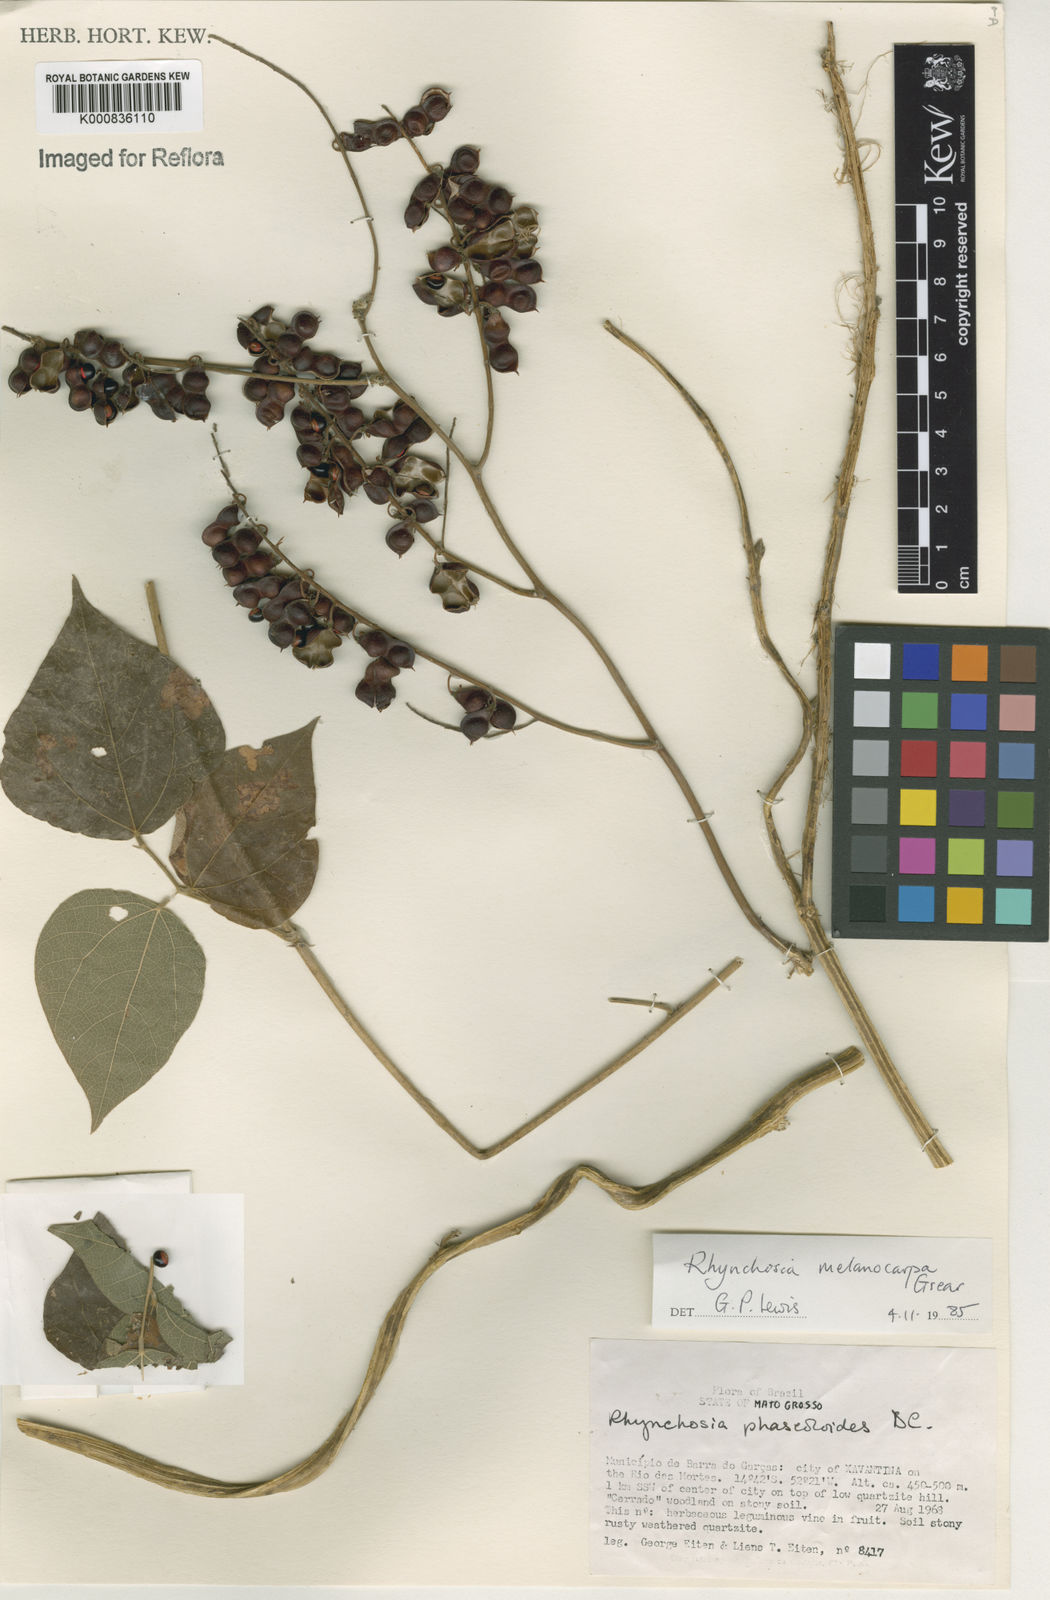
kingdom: Plantae
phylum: Tracheophyta
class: Magnoliopsida
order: Fabales
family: Fabaceae
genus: Rhynchosia
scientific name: Rhynchosia melanocarpa
